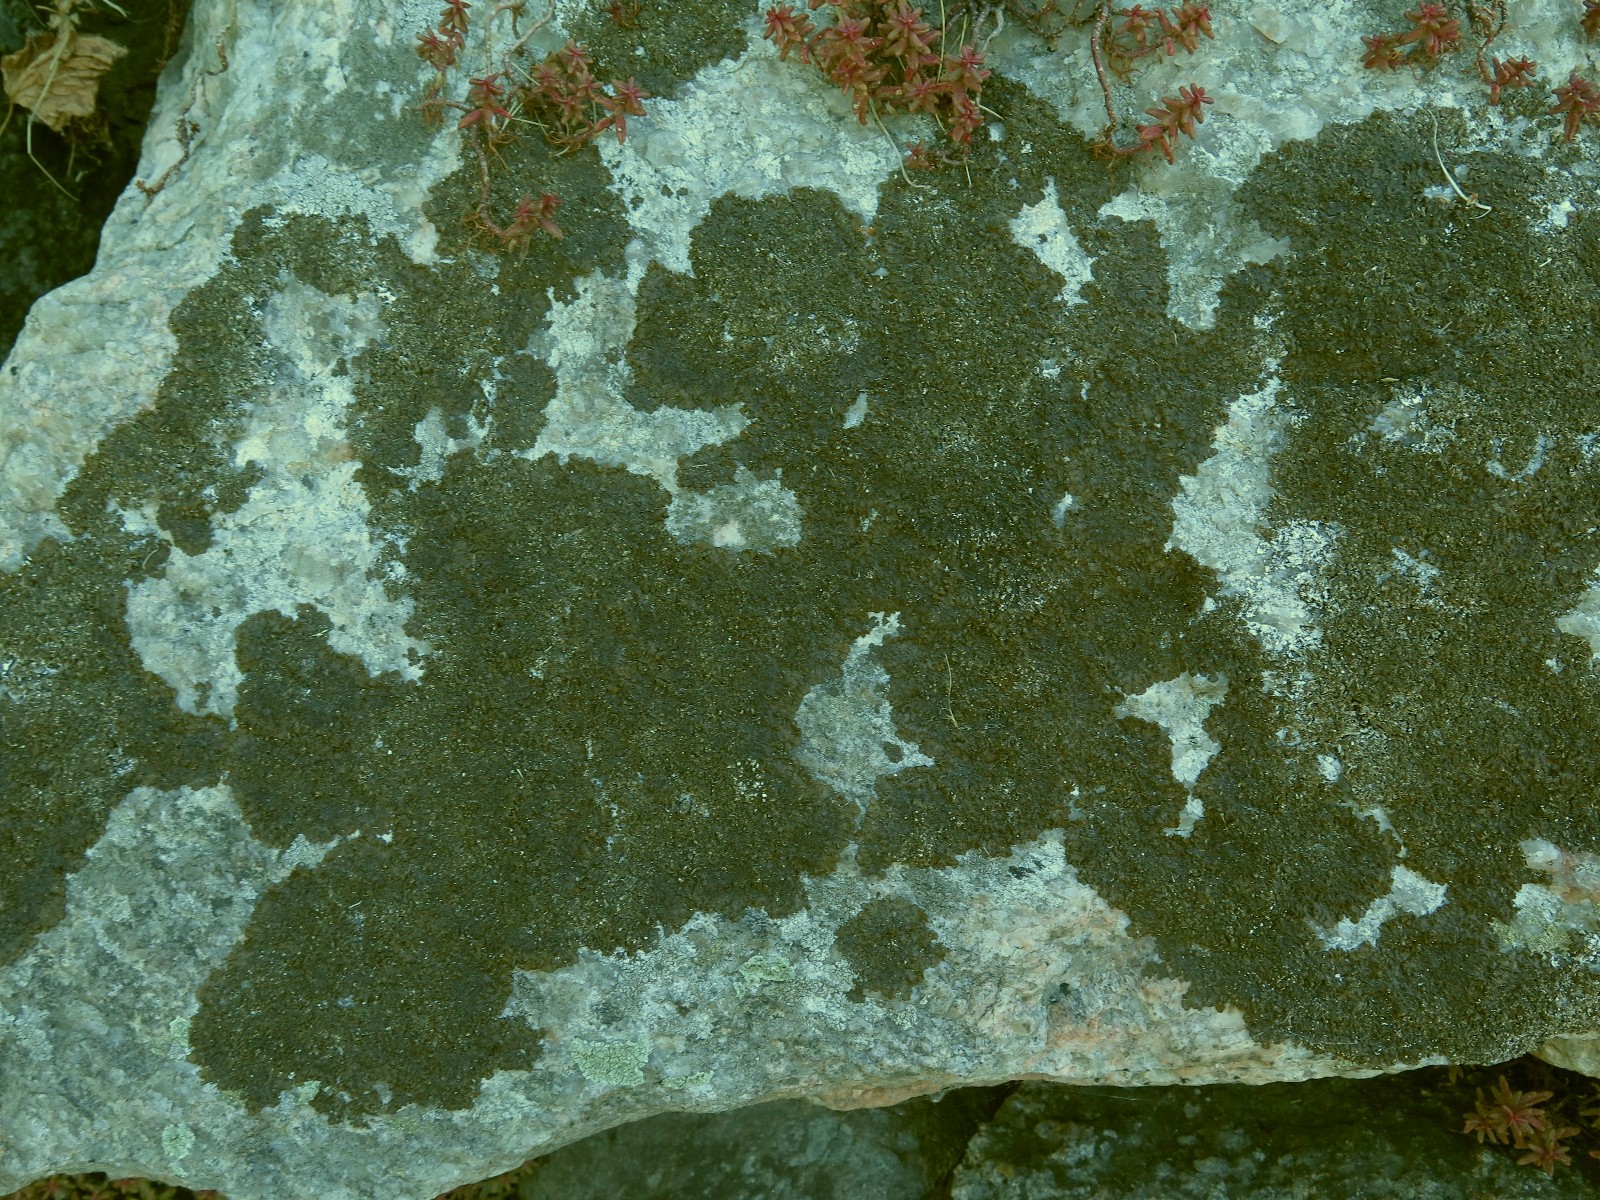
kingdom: Fungi
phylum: Ascomycota
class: Lecanoromycetes
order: Lecanorales
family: Parmeliaceae
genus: Xanthoparmelia
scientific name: Xanthoparmelia verruculifera
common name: småknoppet skållav
